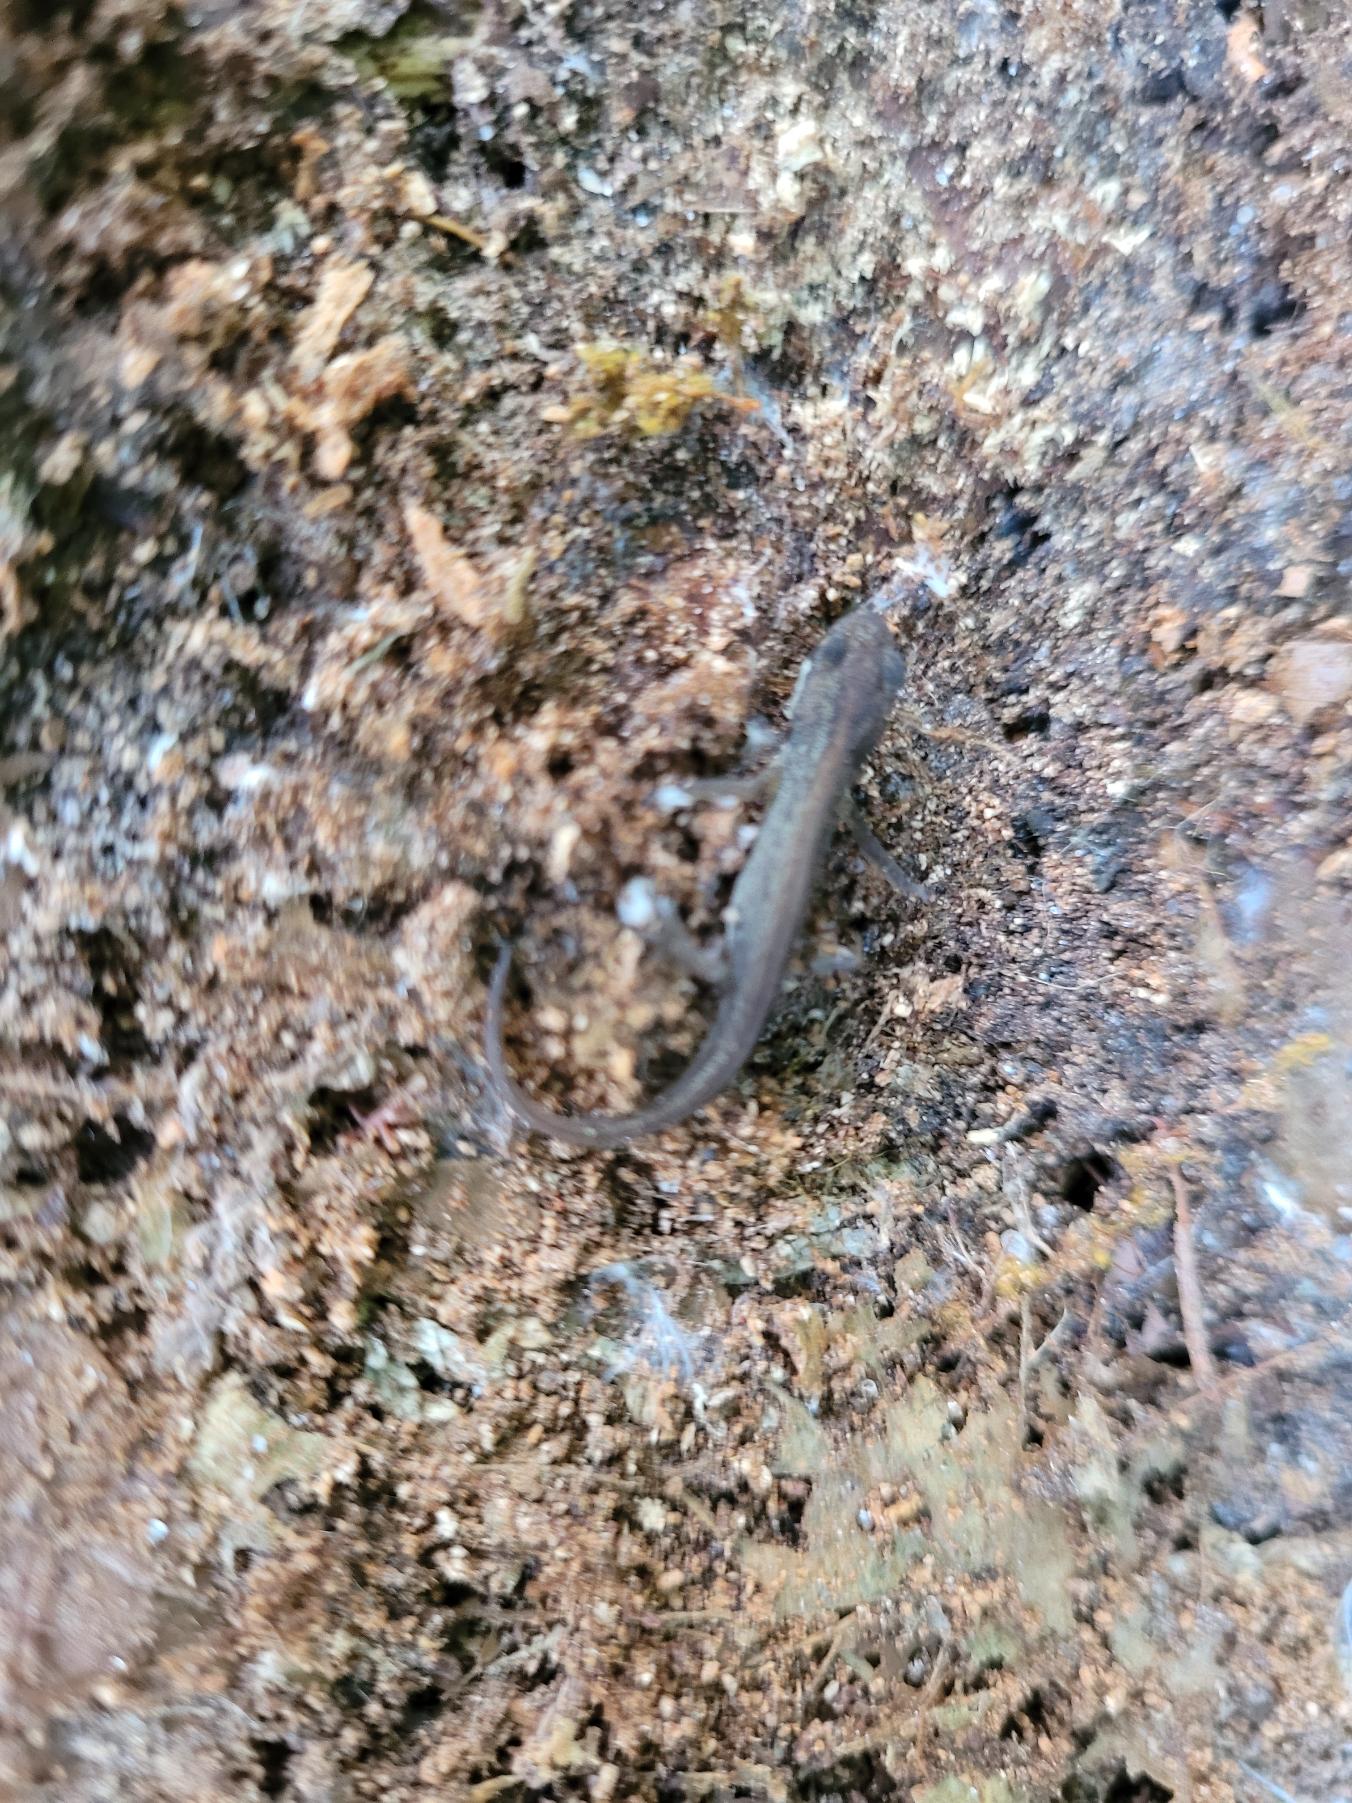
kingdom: Animalia
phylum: Chordata
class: Amphibia
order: Caudata
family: Salamandridae
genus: Lissotriton
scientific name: Lissotriton vulgaris
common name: Lille vandsalamander
